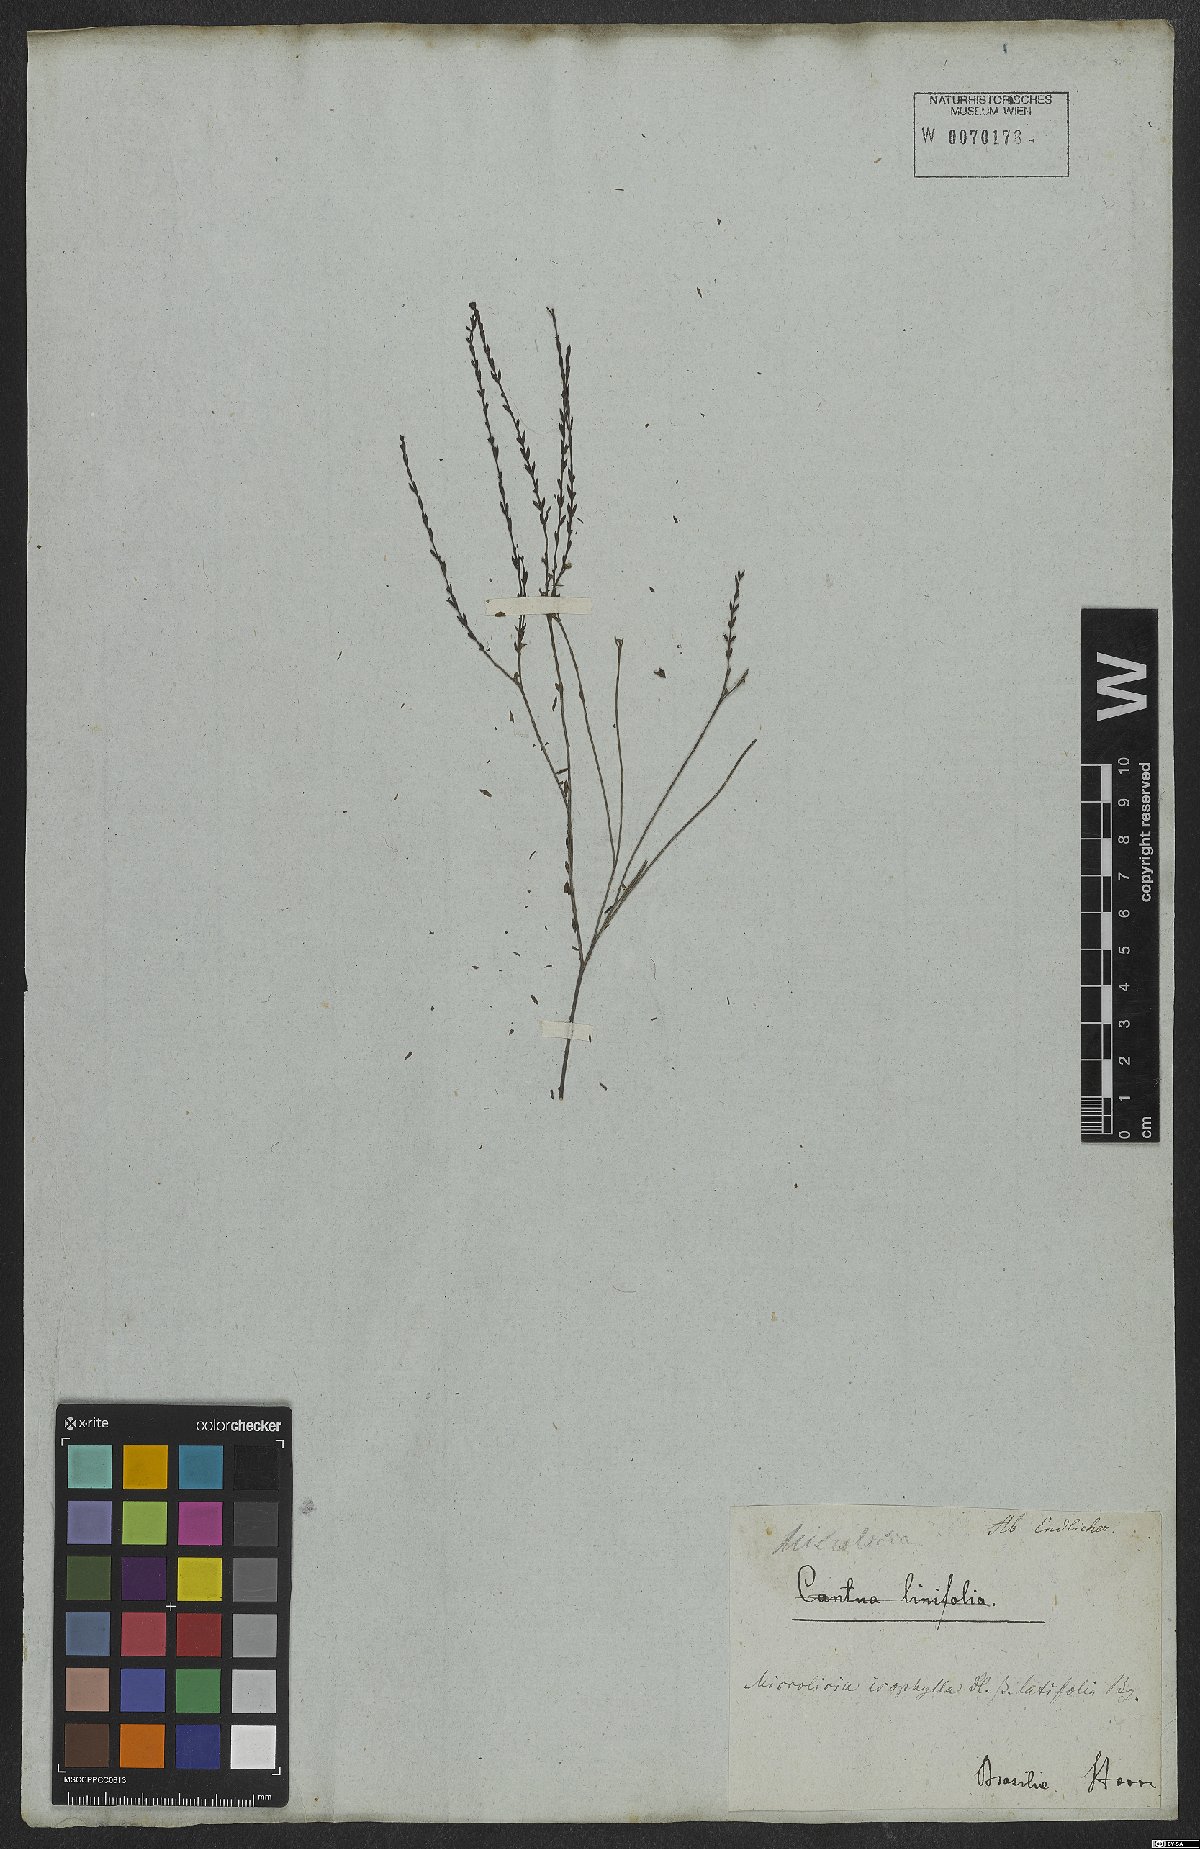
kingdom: Plantae
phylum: Tracheophyta
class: Magnoliopsida
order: Myrtales
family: Melastomataceae
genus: Microlicia
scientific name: Microlicia isophylla
